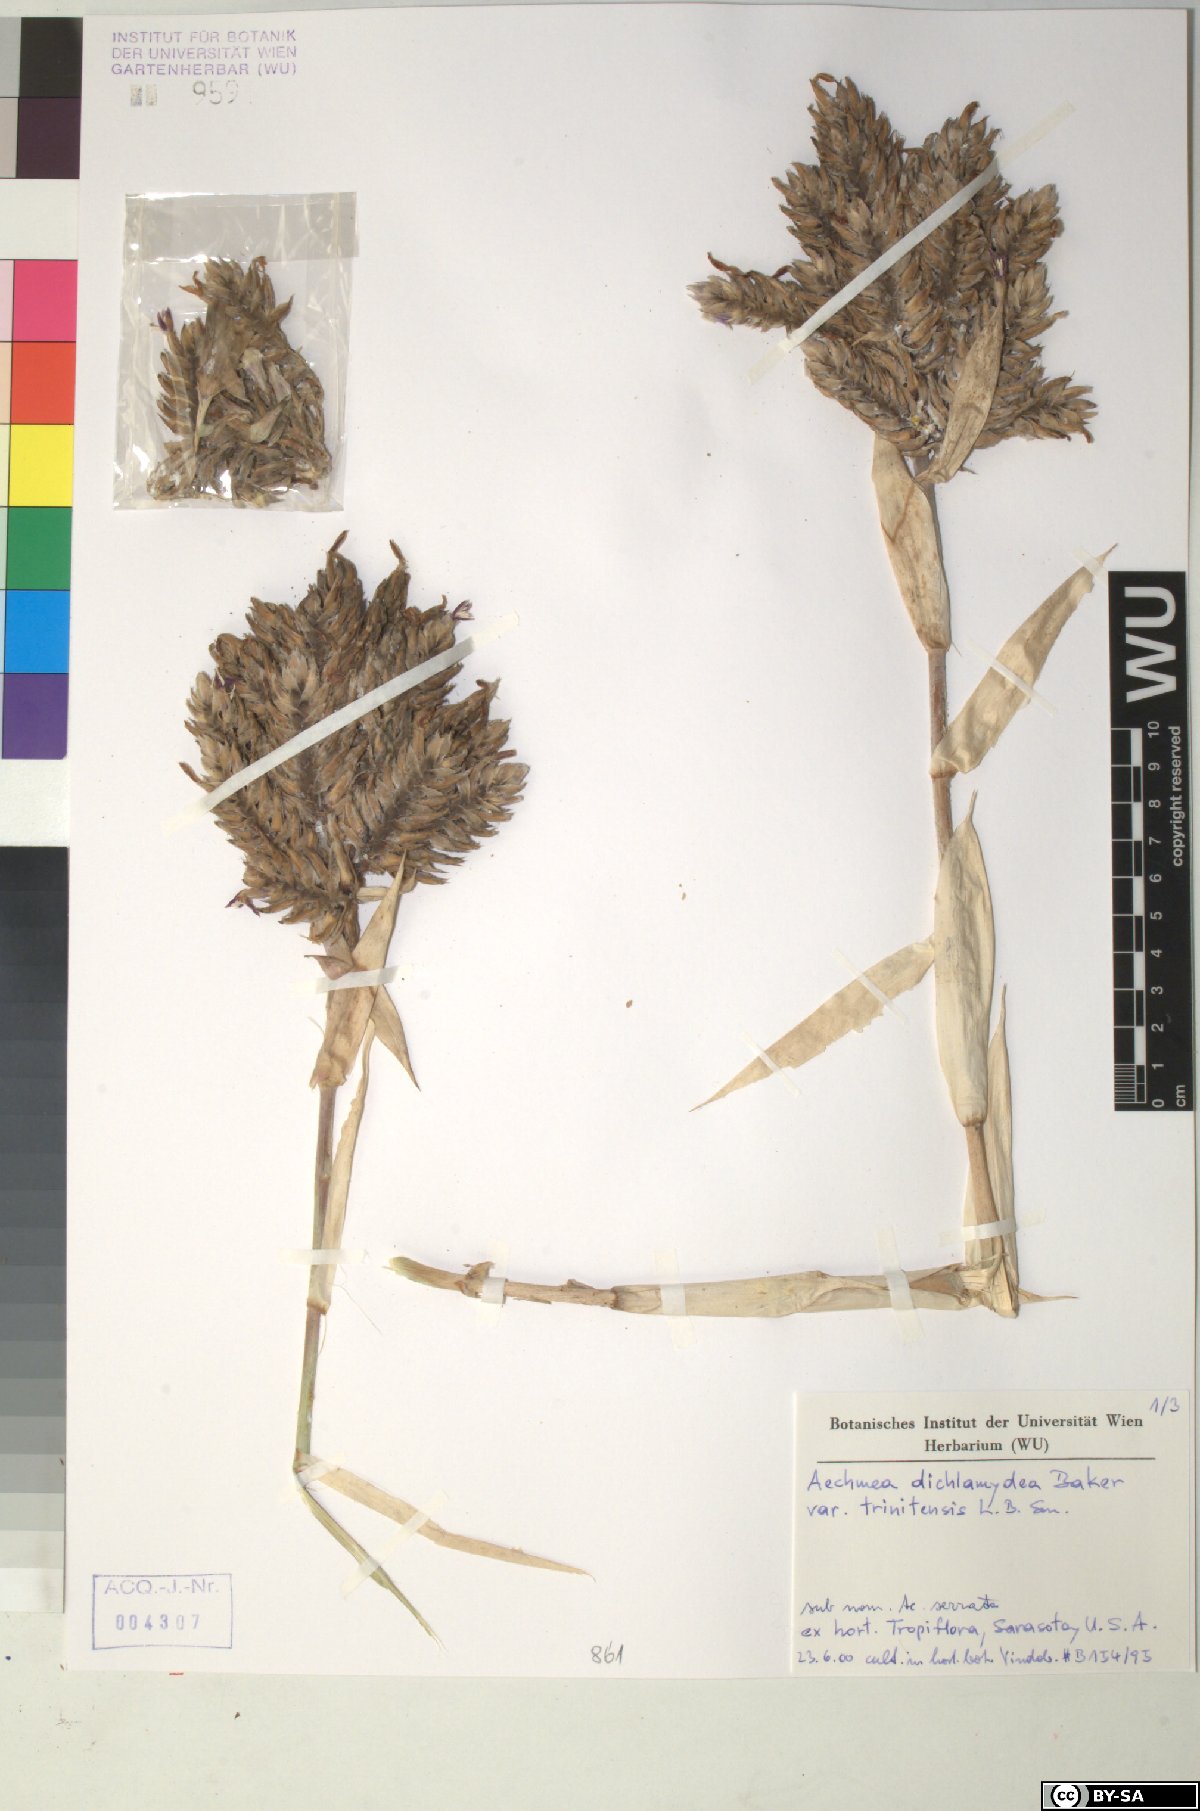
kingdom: Plantae
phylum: Tracheophyta
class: Liliopsida
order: Poales
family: Bromeliaceae
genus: Aechmea
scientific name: Aechmea
